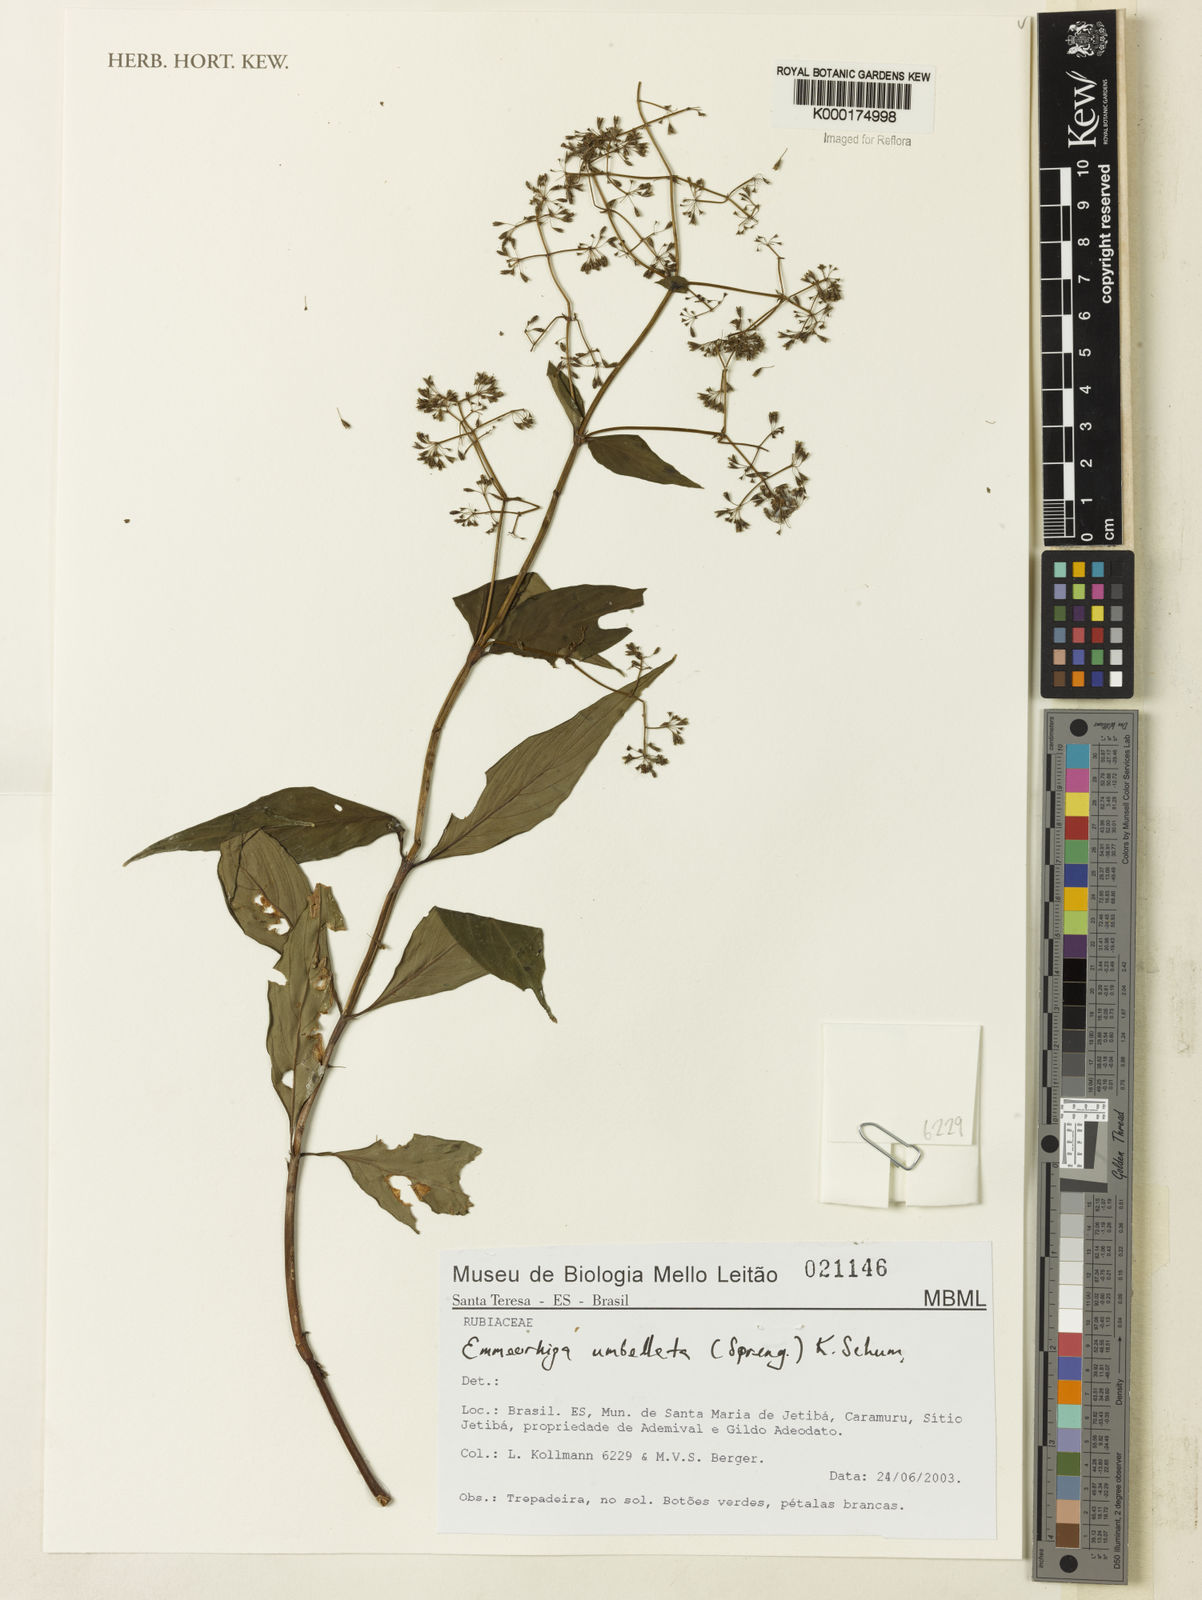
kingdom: Plantae
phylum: Tracheophyta
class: Magnoliopsida
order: Gentianales
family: Rubiaceae
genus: Emmeorhiza
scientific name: Emmeorhiza umbellata
